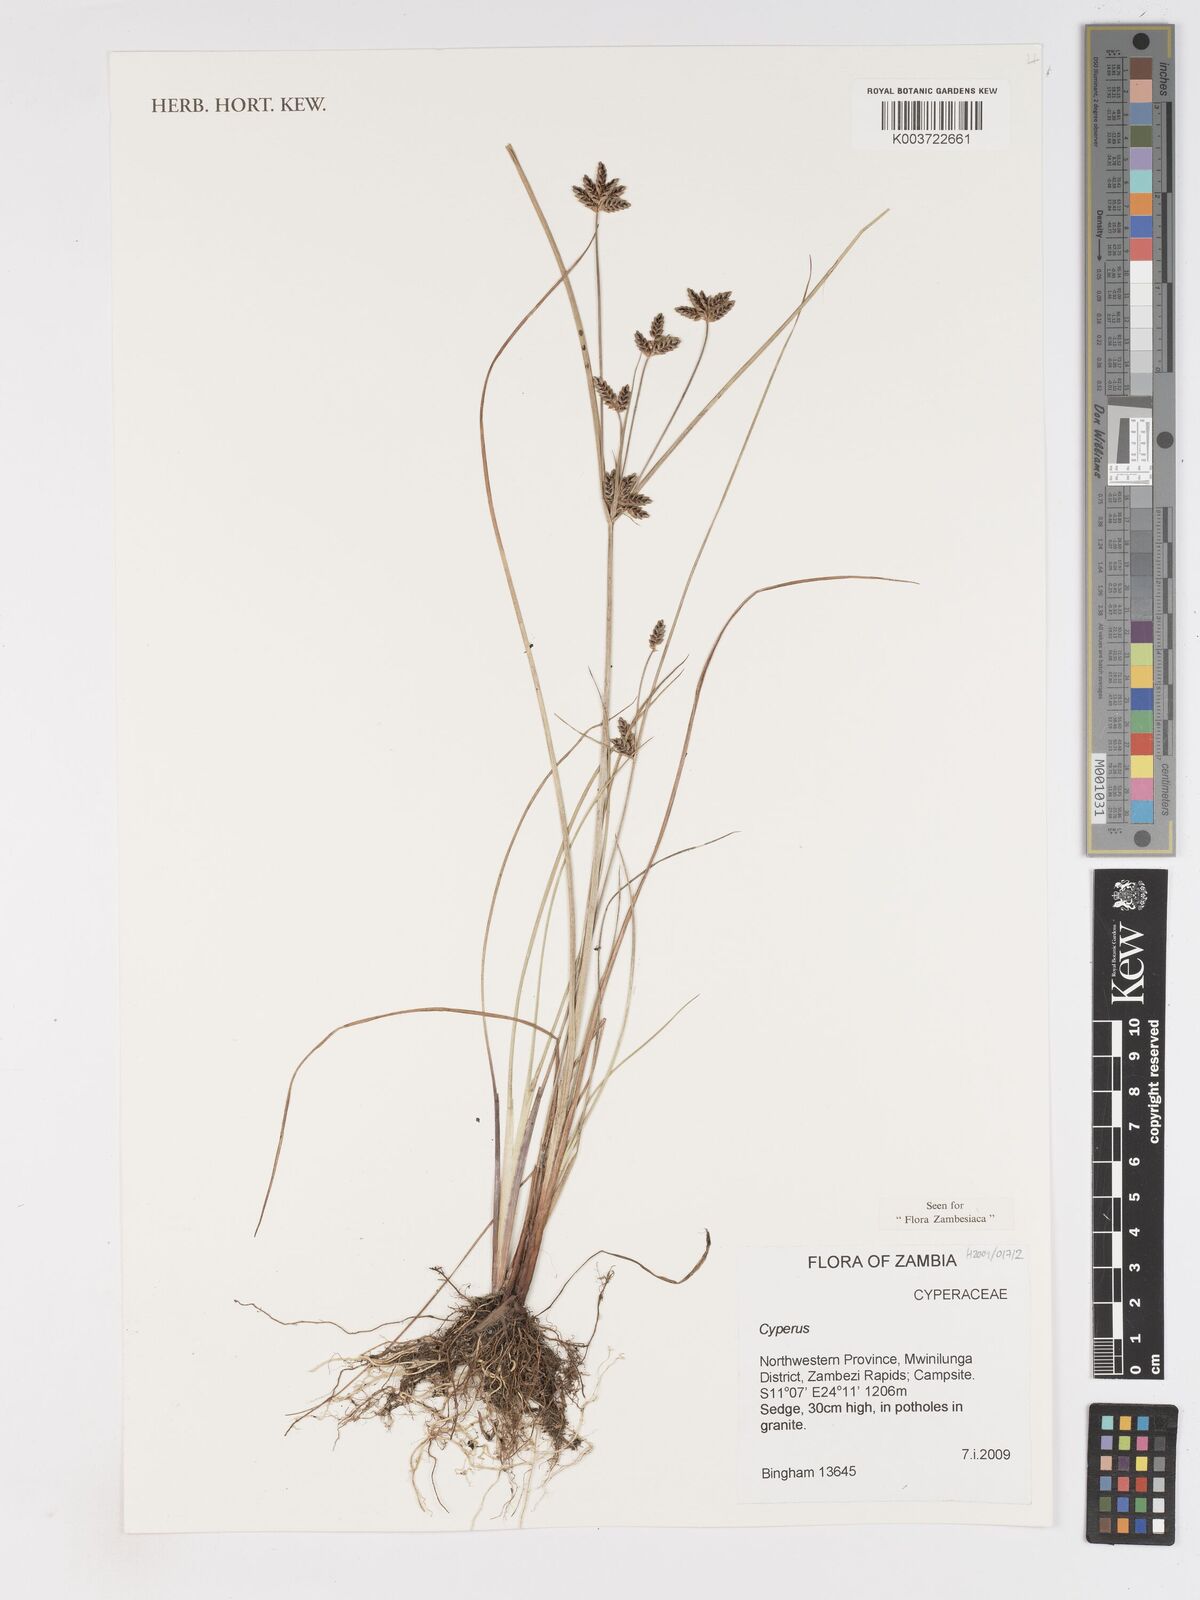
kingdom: Plantae
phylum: Tracheophyta
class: Liliopsida
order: Poales
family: Cyperaceae
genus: Cyperus
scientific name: Cyperus pustulatus
